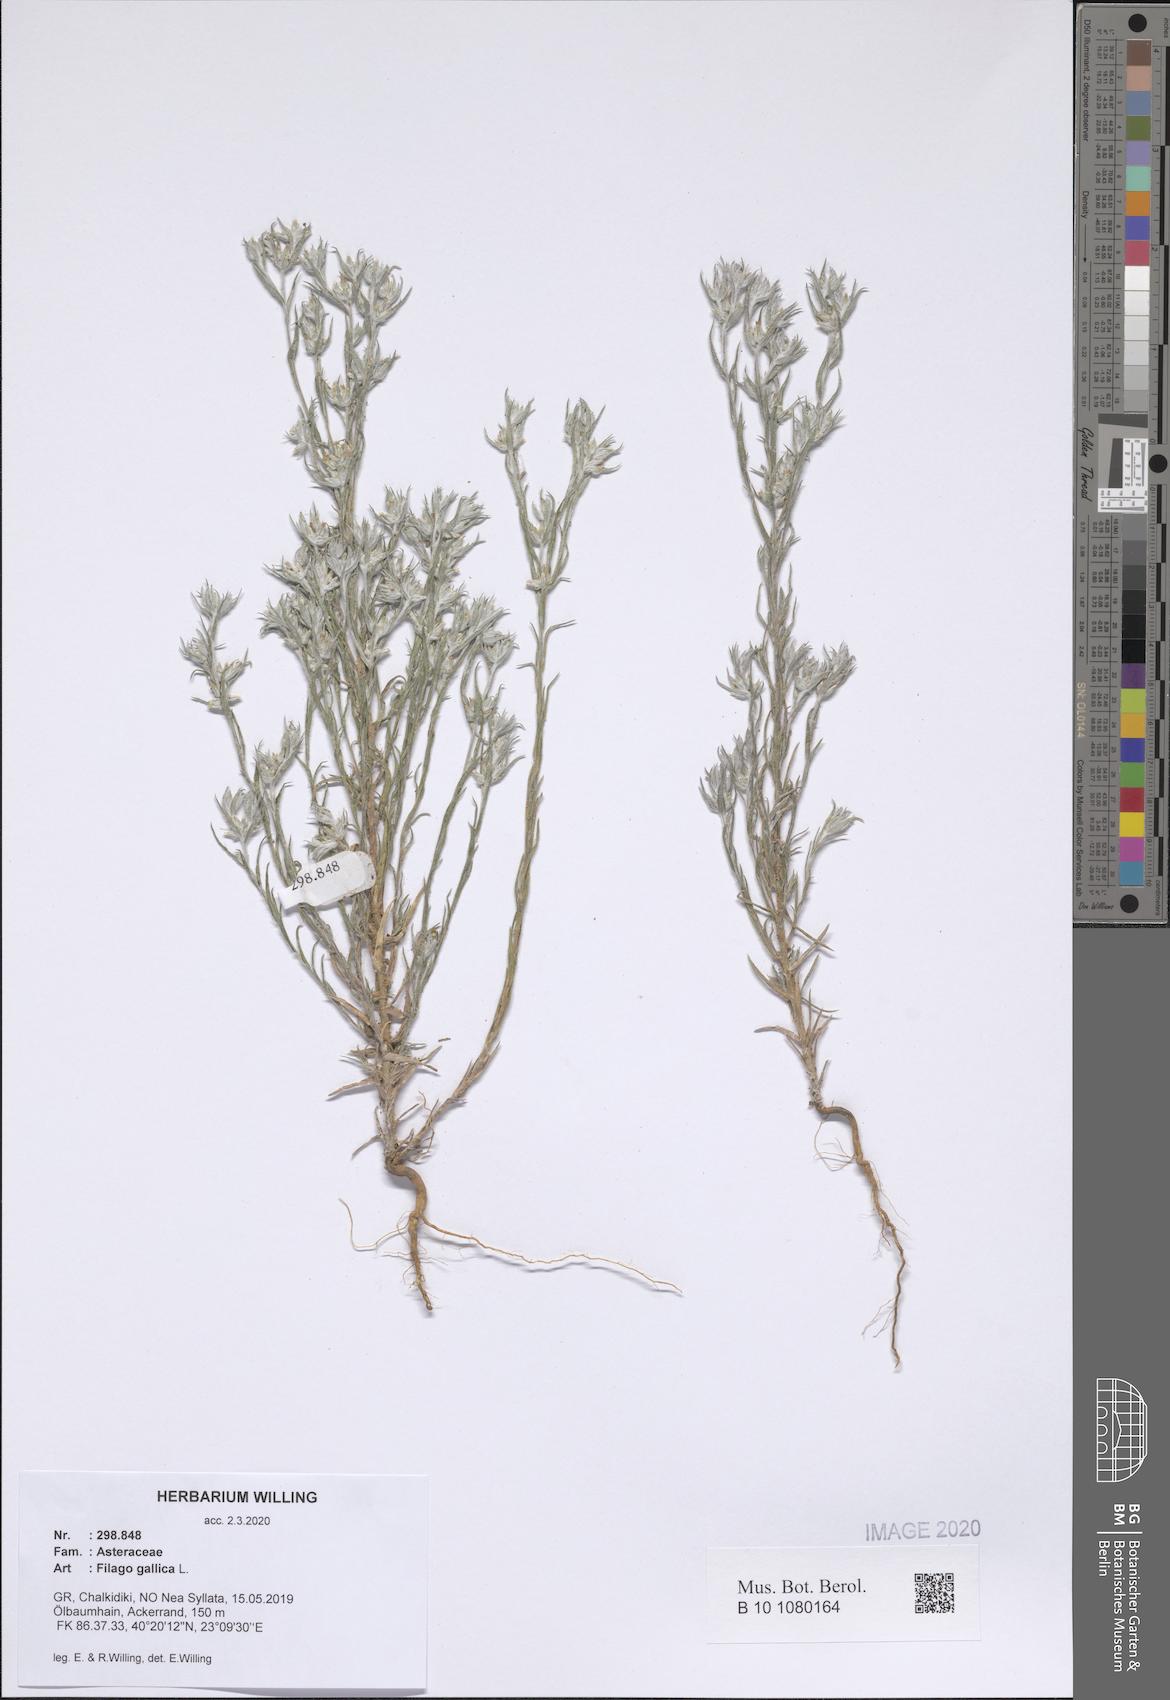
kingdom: Plantae
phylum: Tracheophyta
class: Magnoliopsida
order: Asterales
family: Asteraceae
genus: Logfia
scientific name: Logfia gallica
